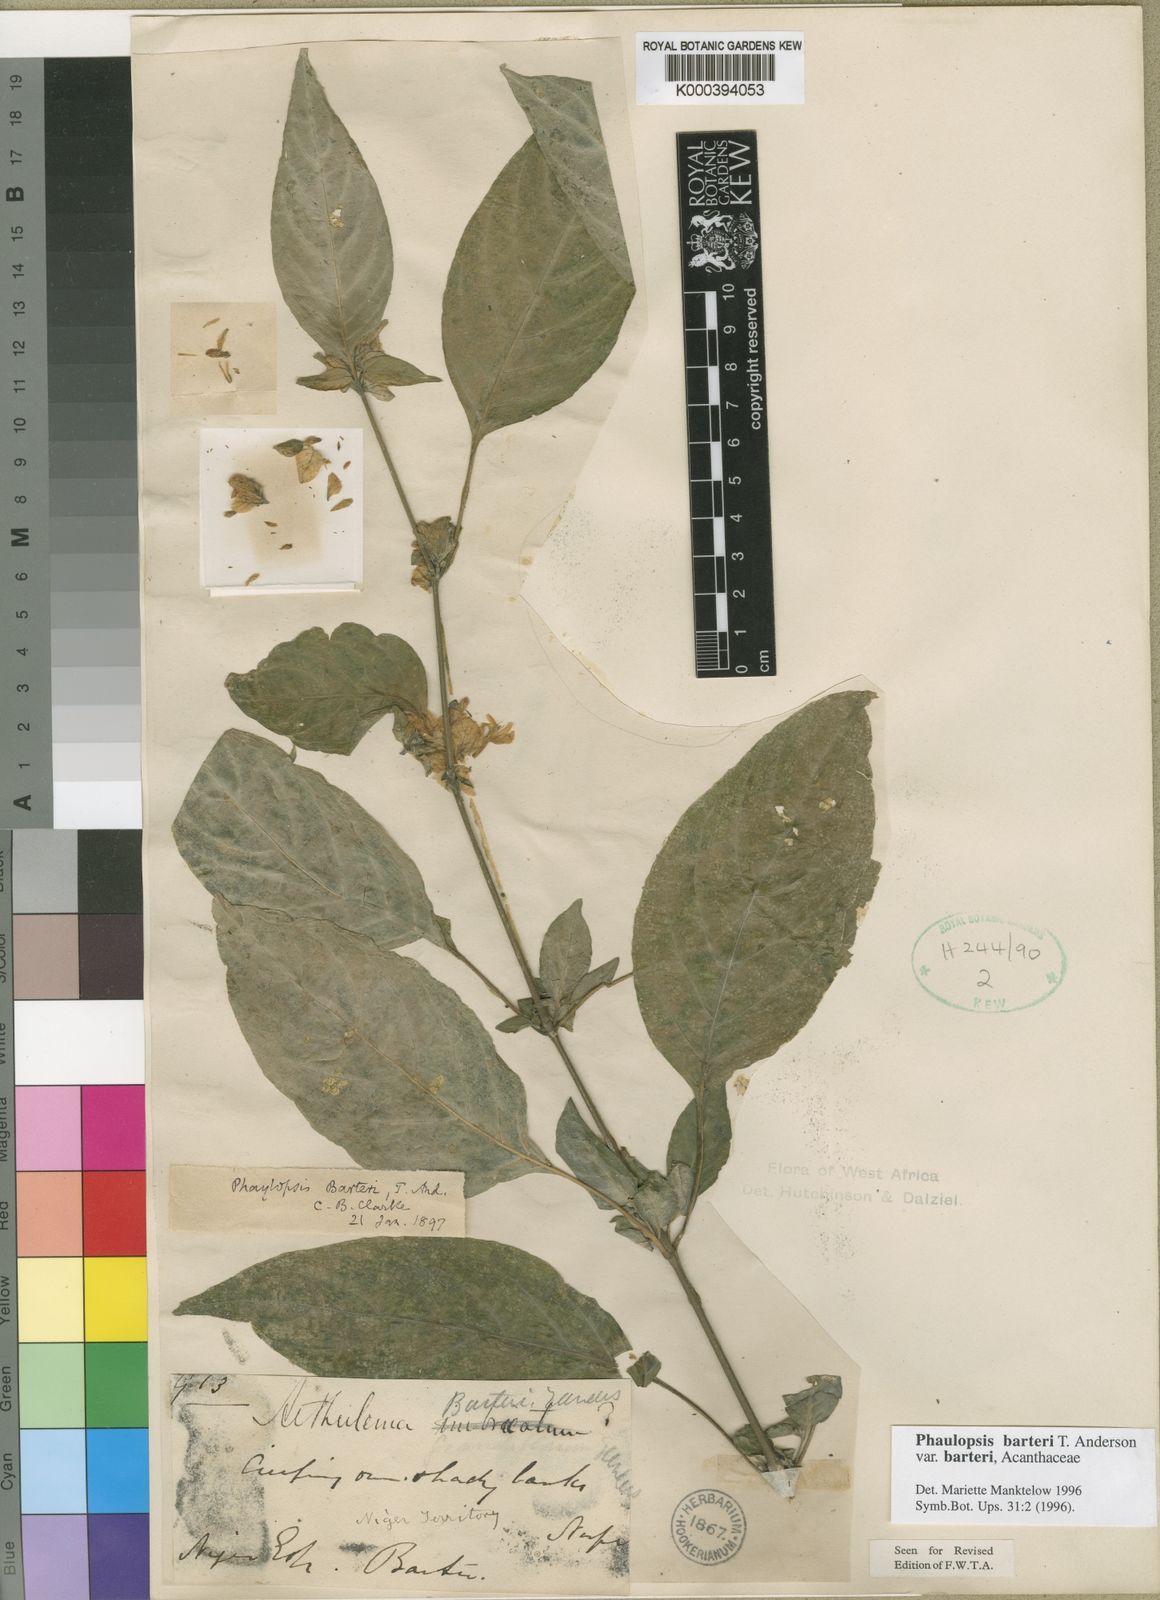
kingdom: Plantae
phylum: Tracheophyta
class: Magnoliopsida
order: Lamiales
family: Acanthaceae
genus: Phaulopsis
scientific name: Phaulopsis barteri
